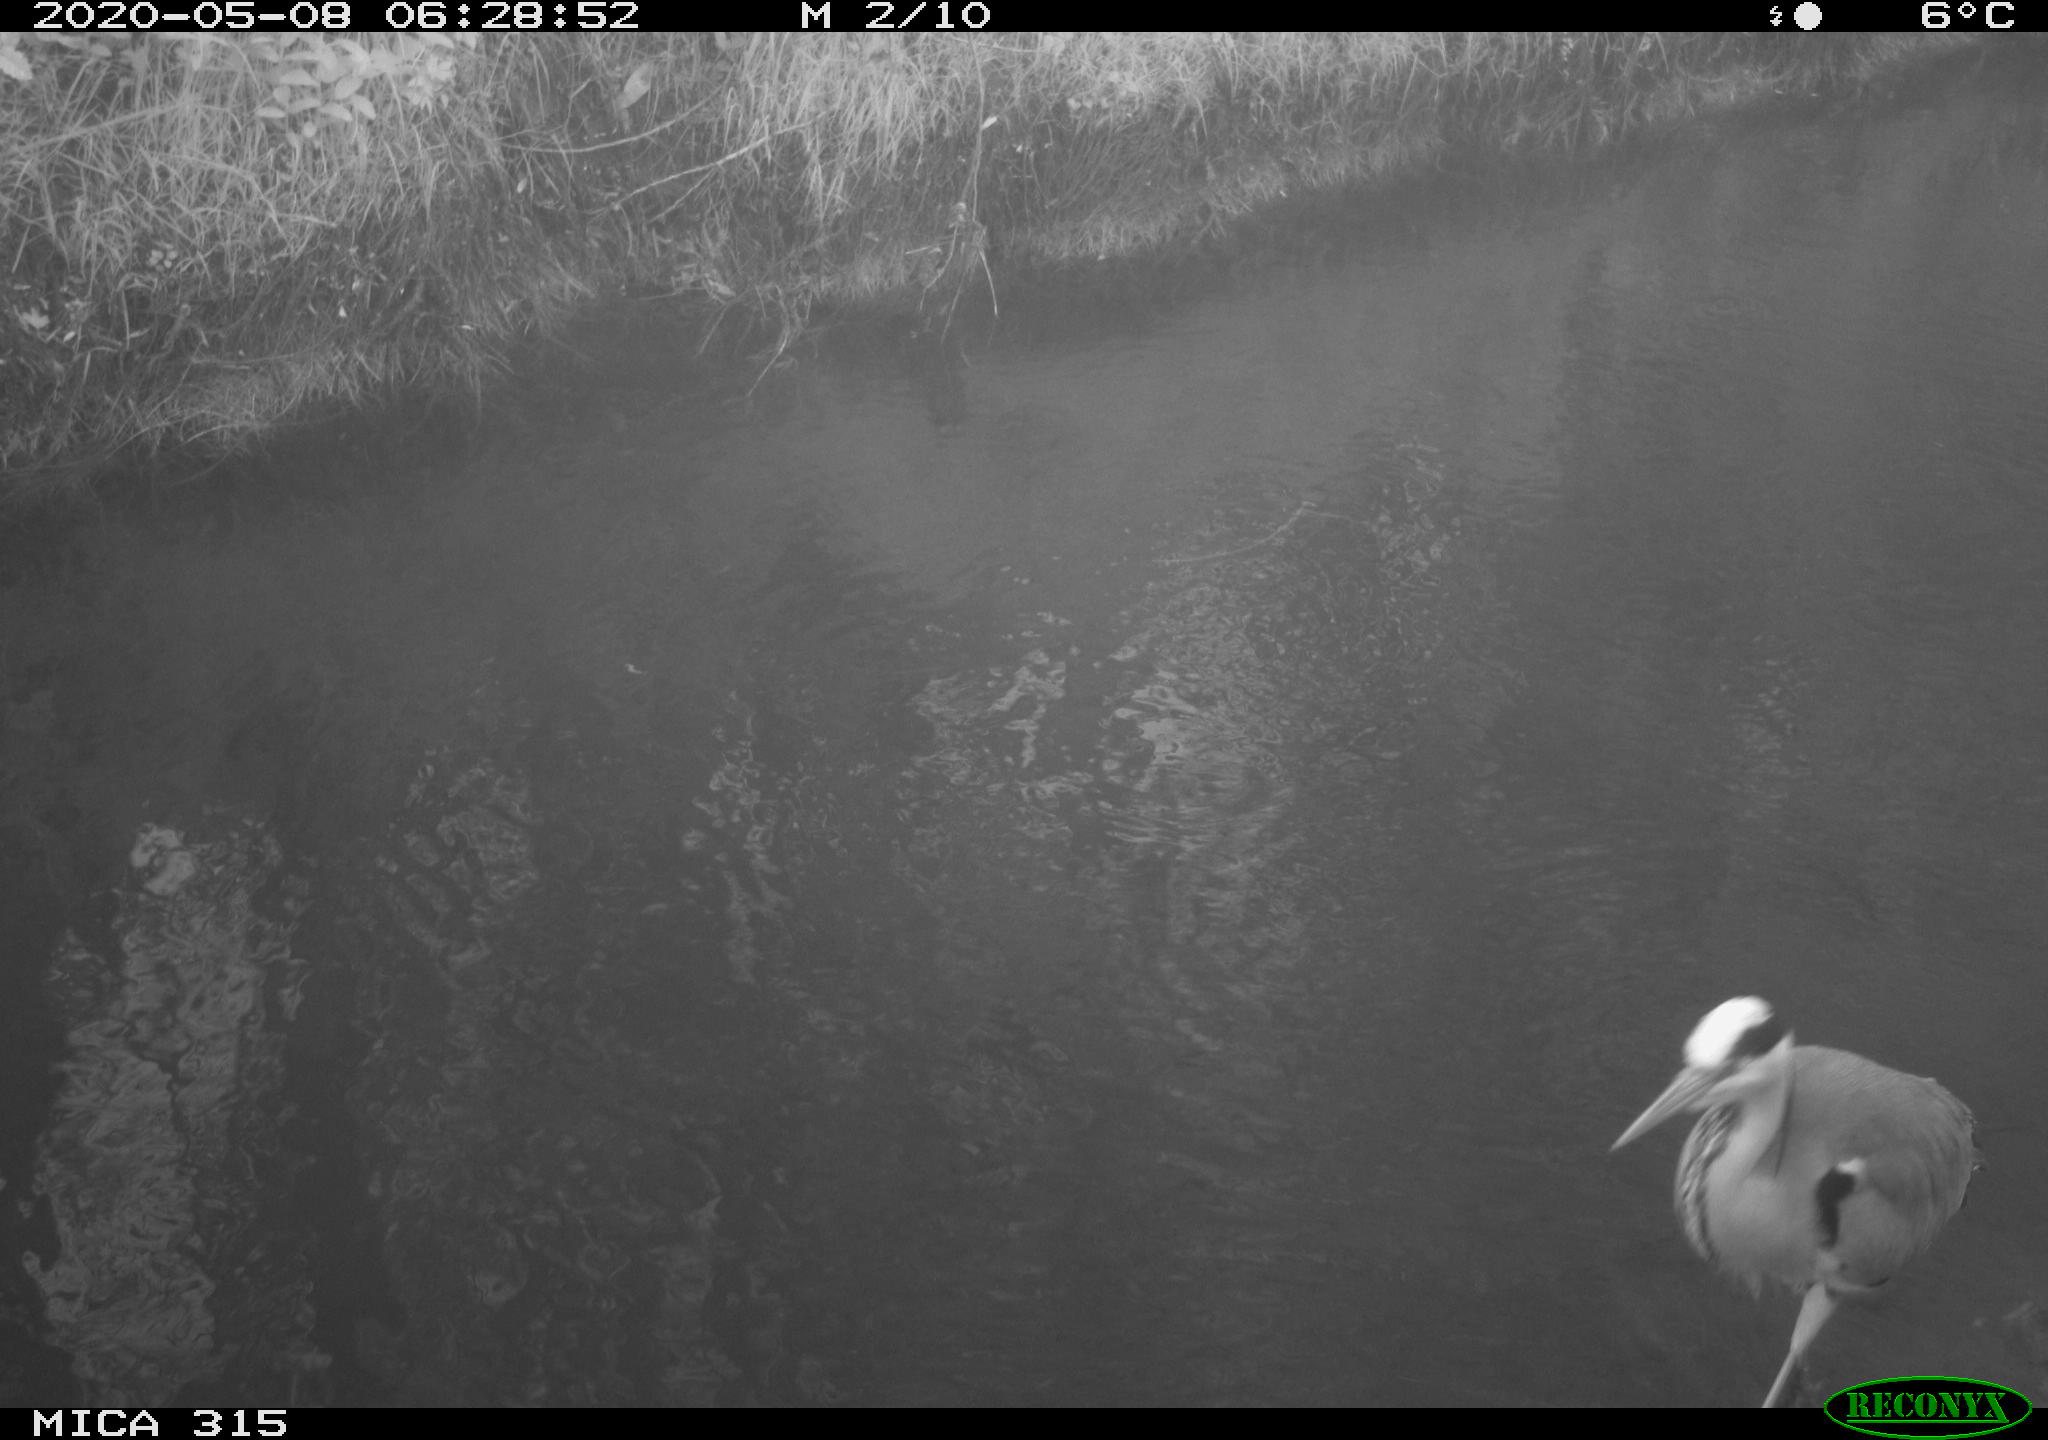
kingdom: Animalia
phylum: Chordata
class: Aves
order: Pelecaniformes
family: Ardeidae
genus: Ardea
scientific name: Ardea cinerea
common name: Grey heron
